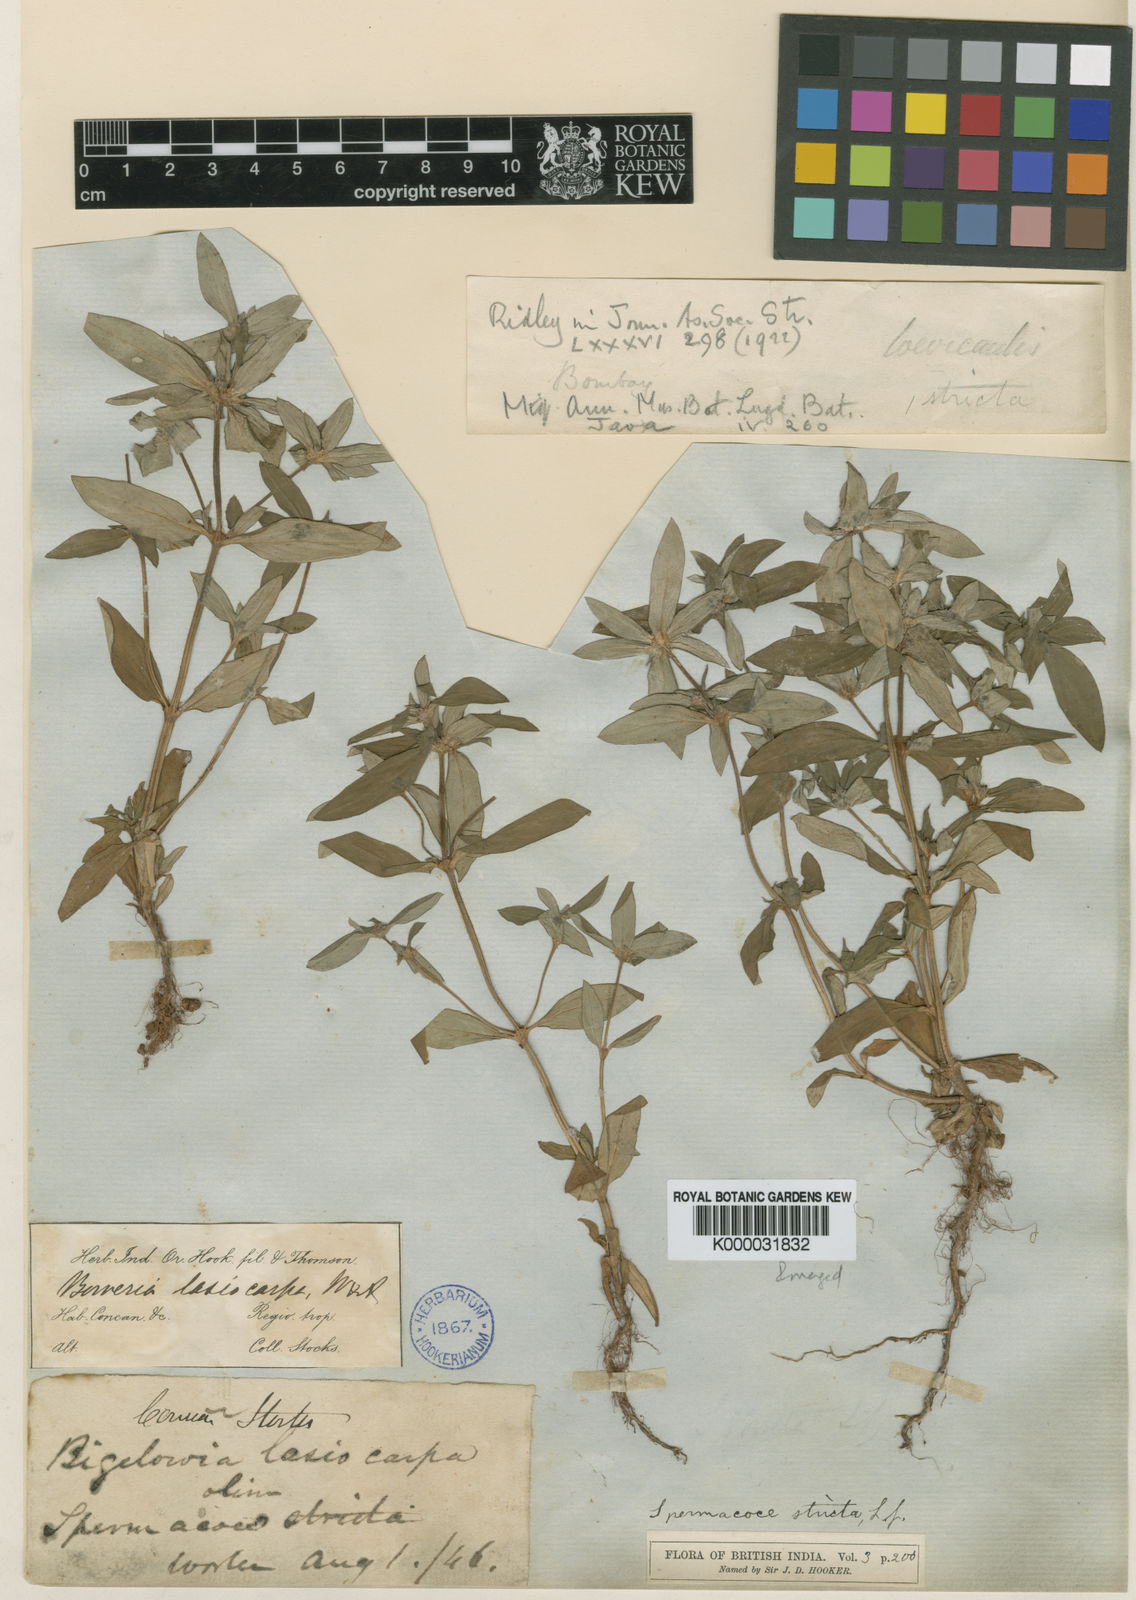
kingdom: Plantae
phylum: Tracheophyta
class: Magnoliopsida
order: Gentianales
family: Rubiaceae
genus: Spermacoce
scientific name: Spermacoce lasiocarpa
